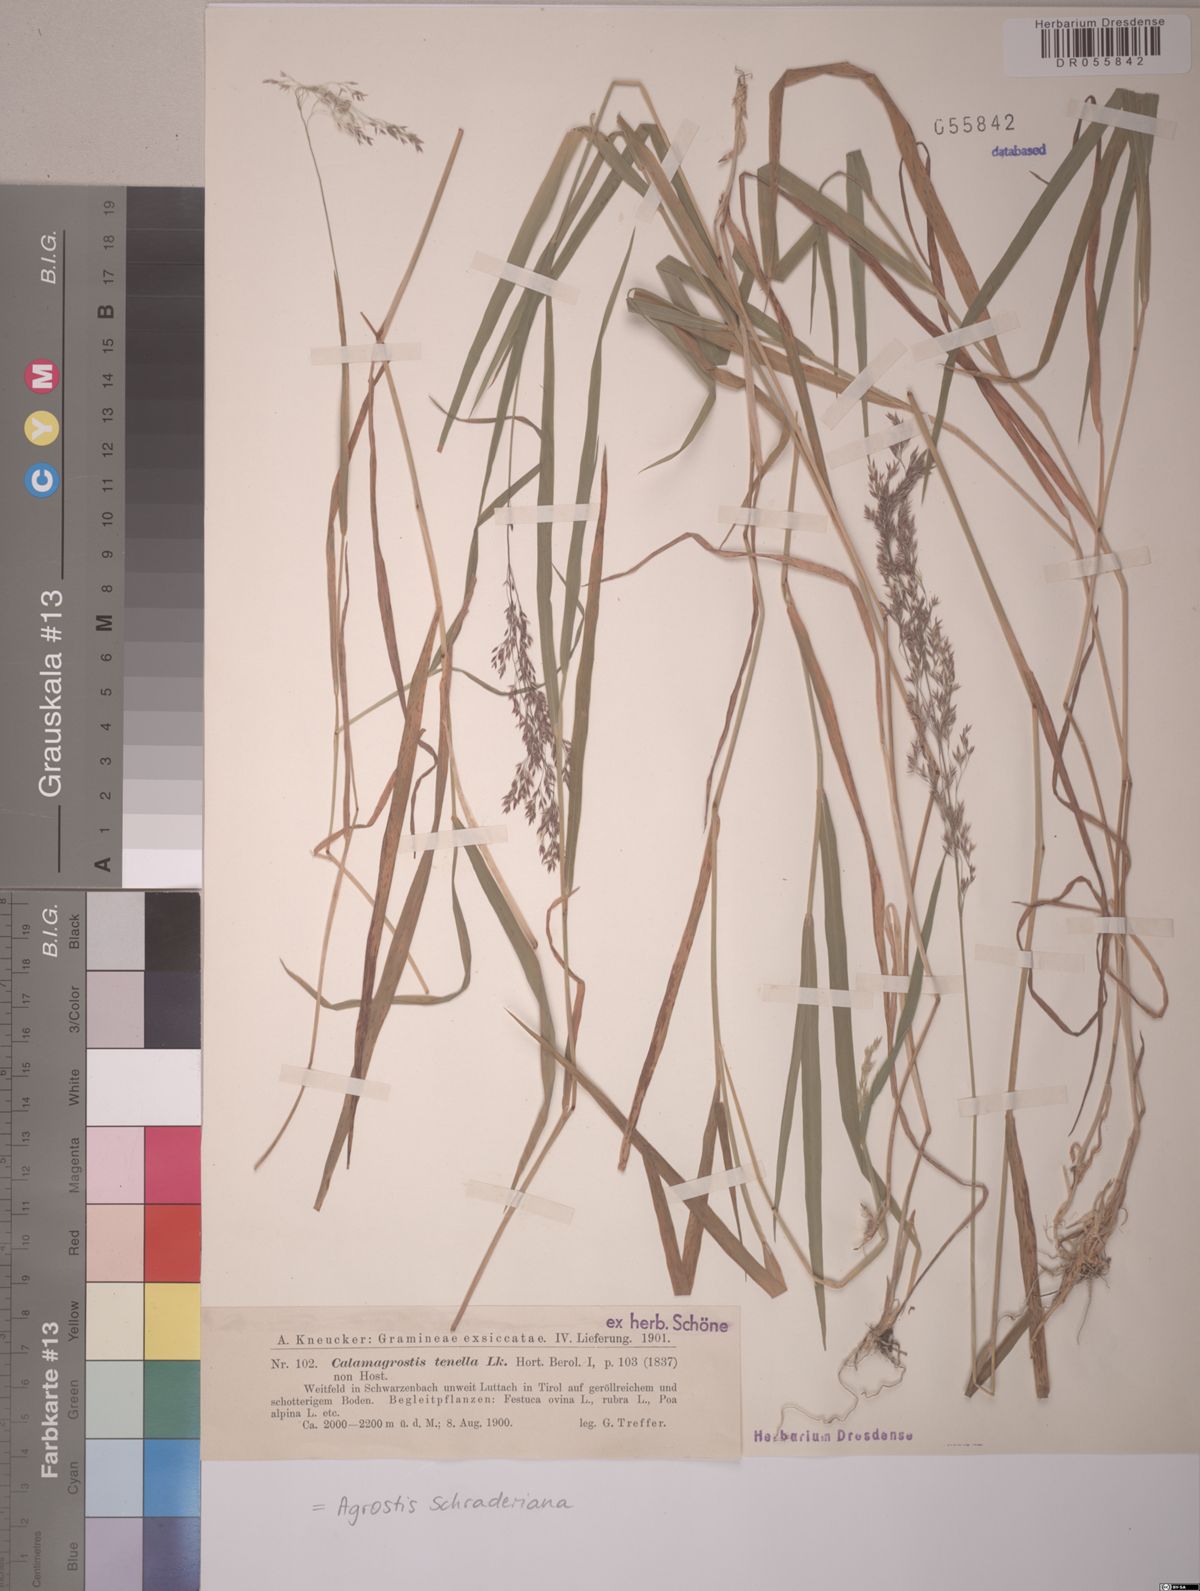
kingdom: Plantae
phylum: Tracheophyta
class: Liliopsida
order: Poales
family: Poaceae
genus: Agrostis
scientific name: Agrostis schraderiana
